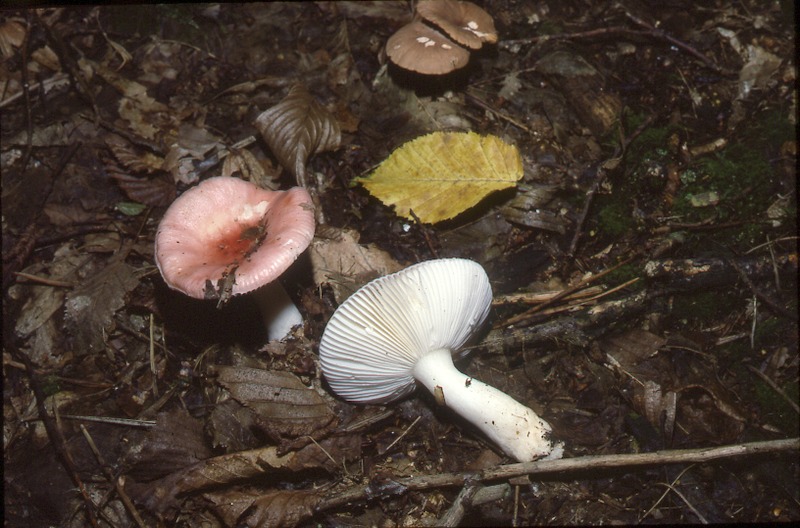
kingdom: Fungi
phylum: Basidiomycota
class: Agaricomycetes
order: Russulales
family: Russulaceae
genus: Russula
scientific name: Russula nobilis
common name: Beechwood sickener
